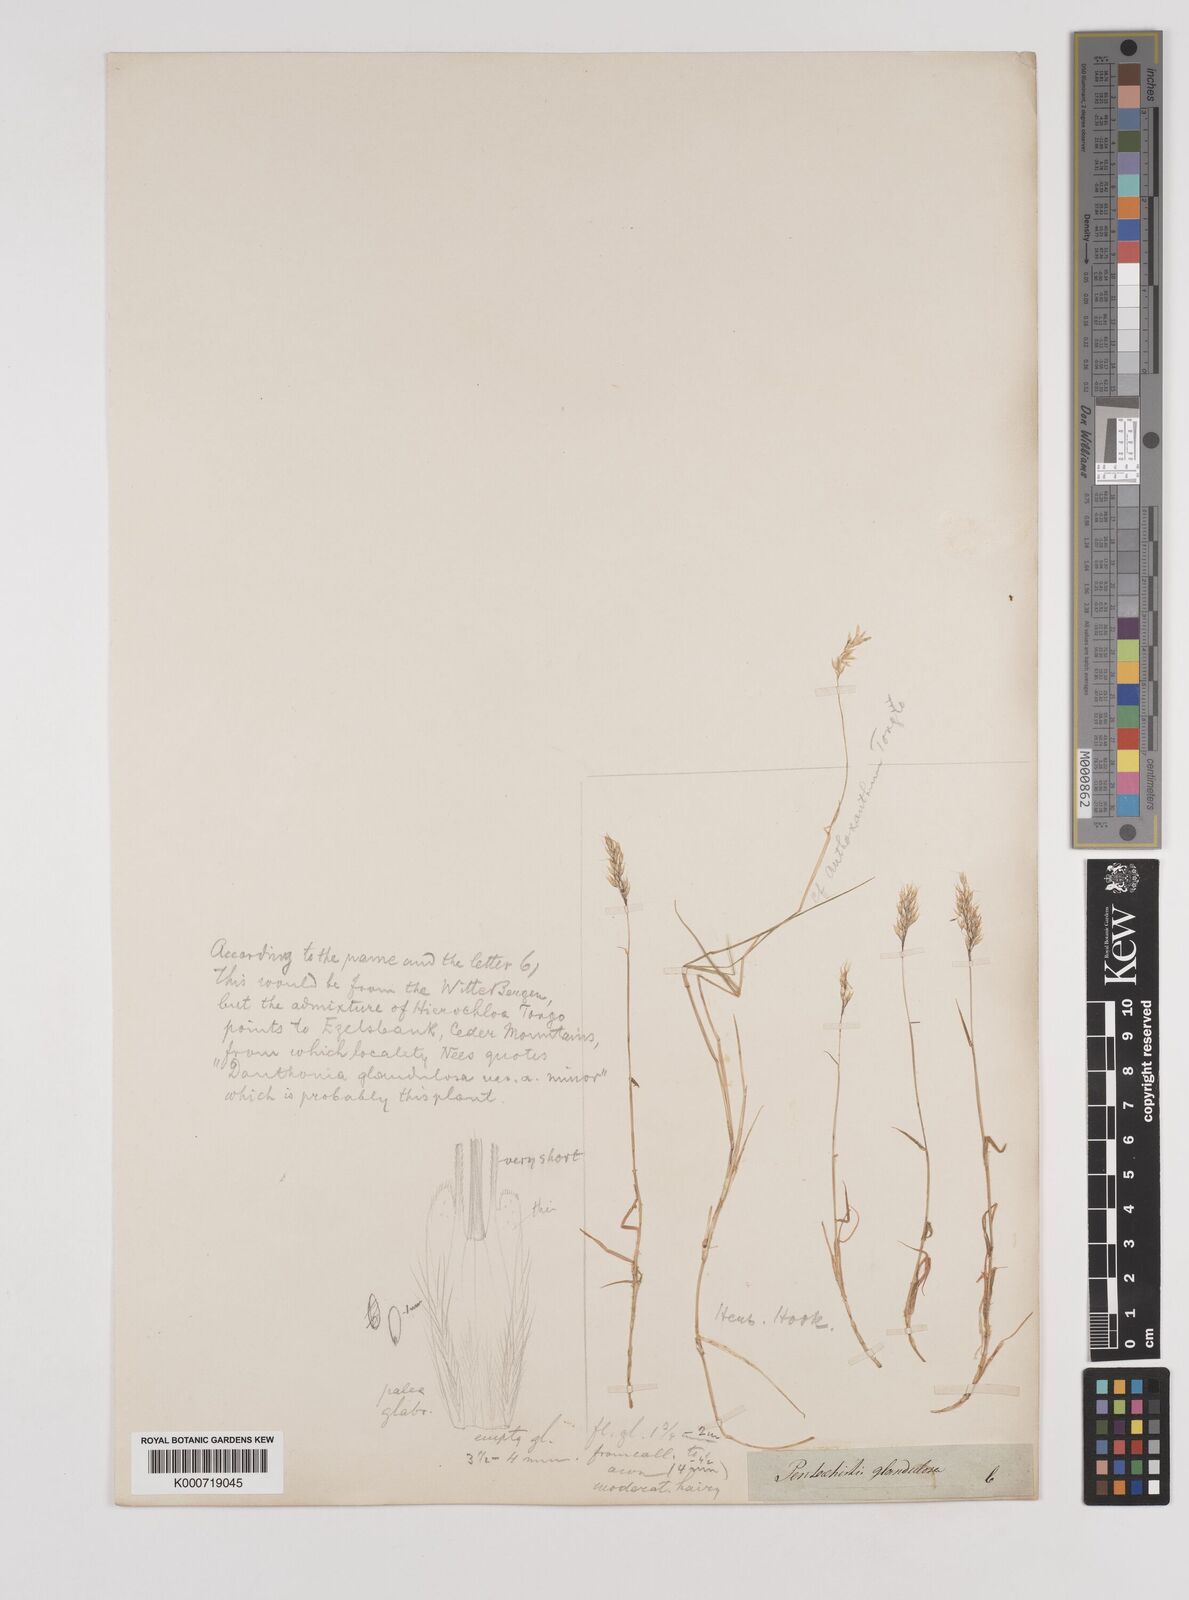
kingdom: Plantae
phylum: Tracheophyta
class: Liliopsida
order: Poales
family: Poaceae
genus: Pentameris
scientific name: Pentameris densifolia
